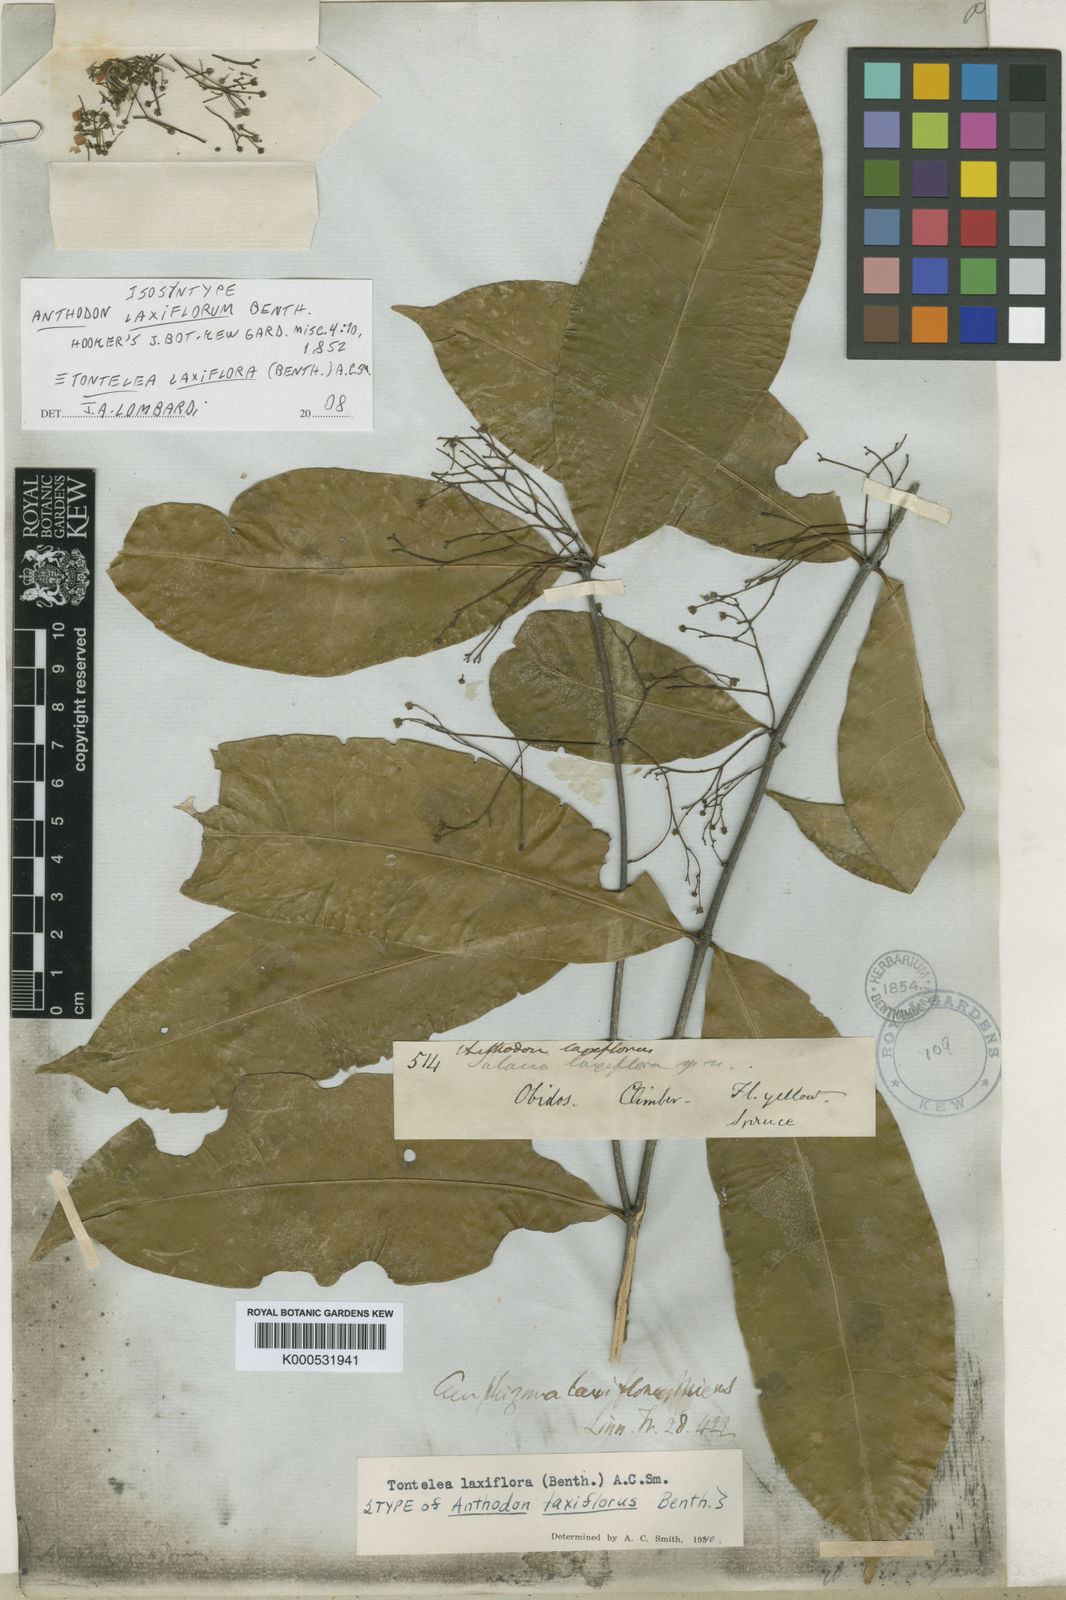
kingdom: Plantae
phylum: Tracheophyta
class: Magnoliopsida
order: Celastrales
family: Celastraceae
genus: Tontelea
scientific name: Tontelea laxiflora
